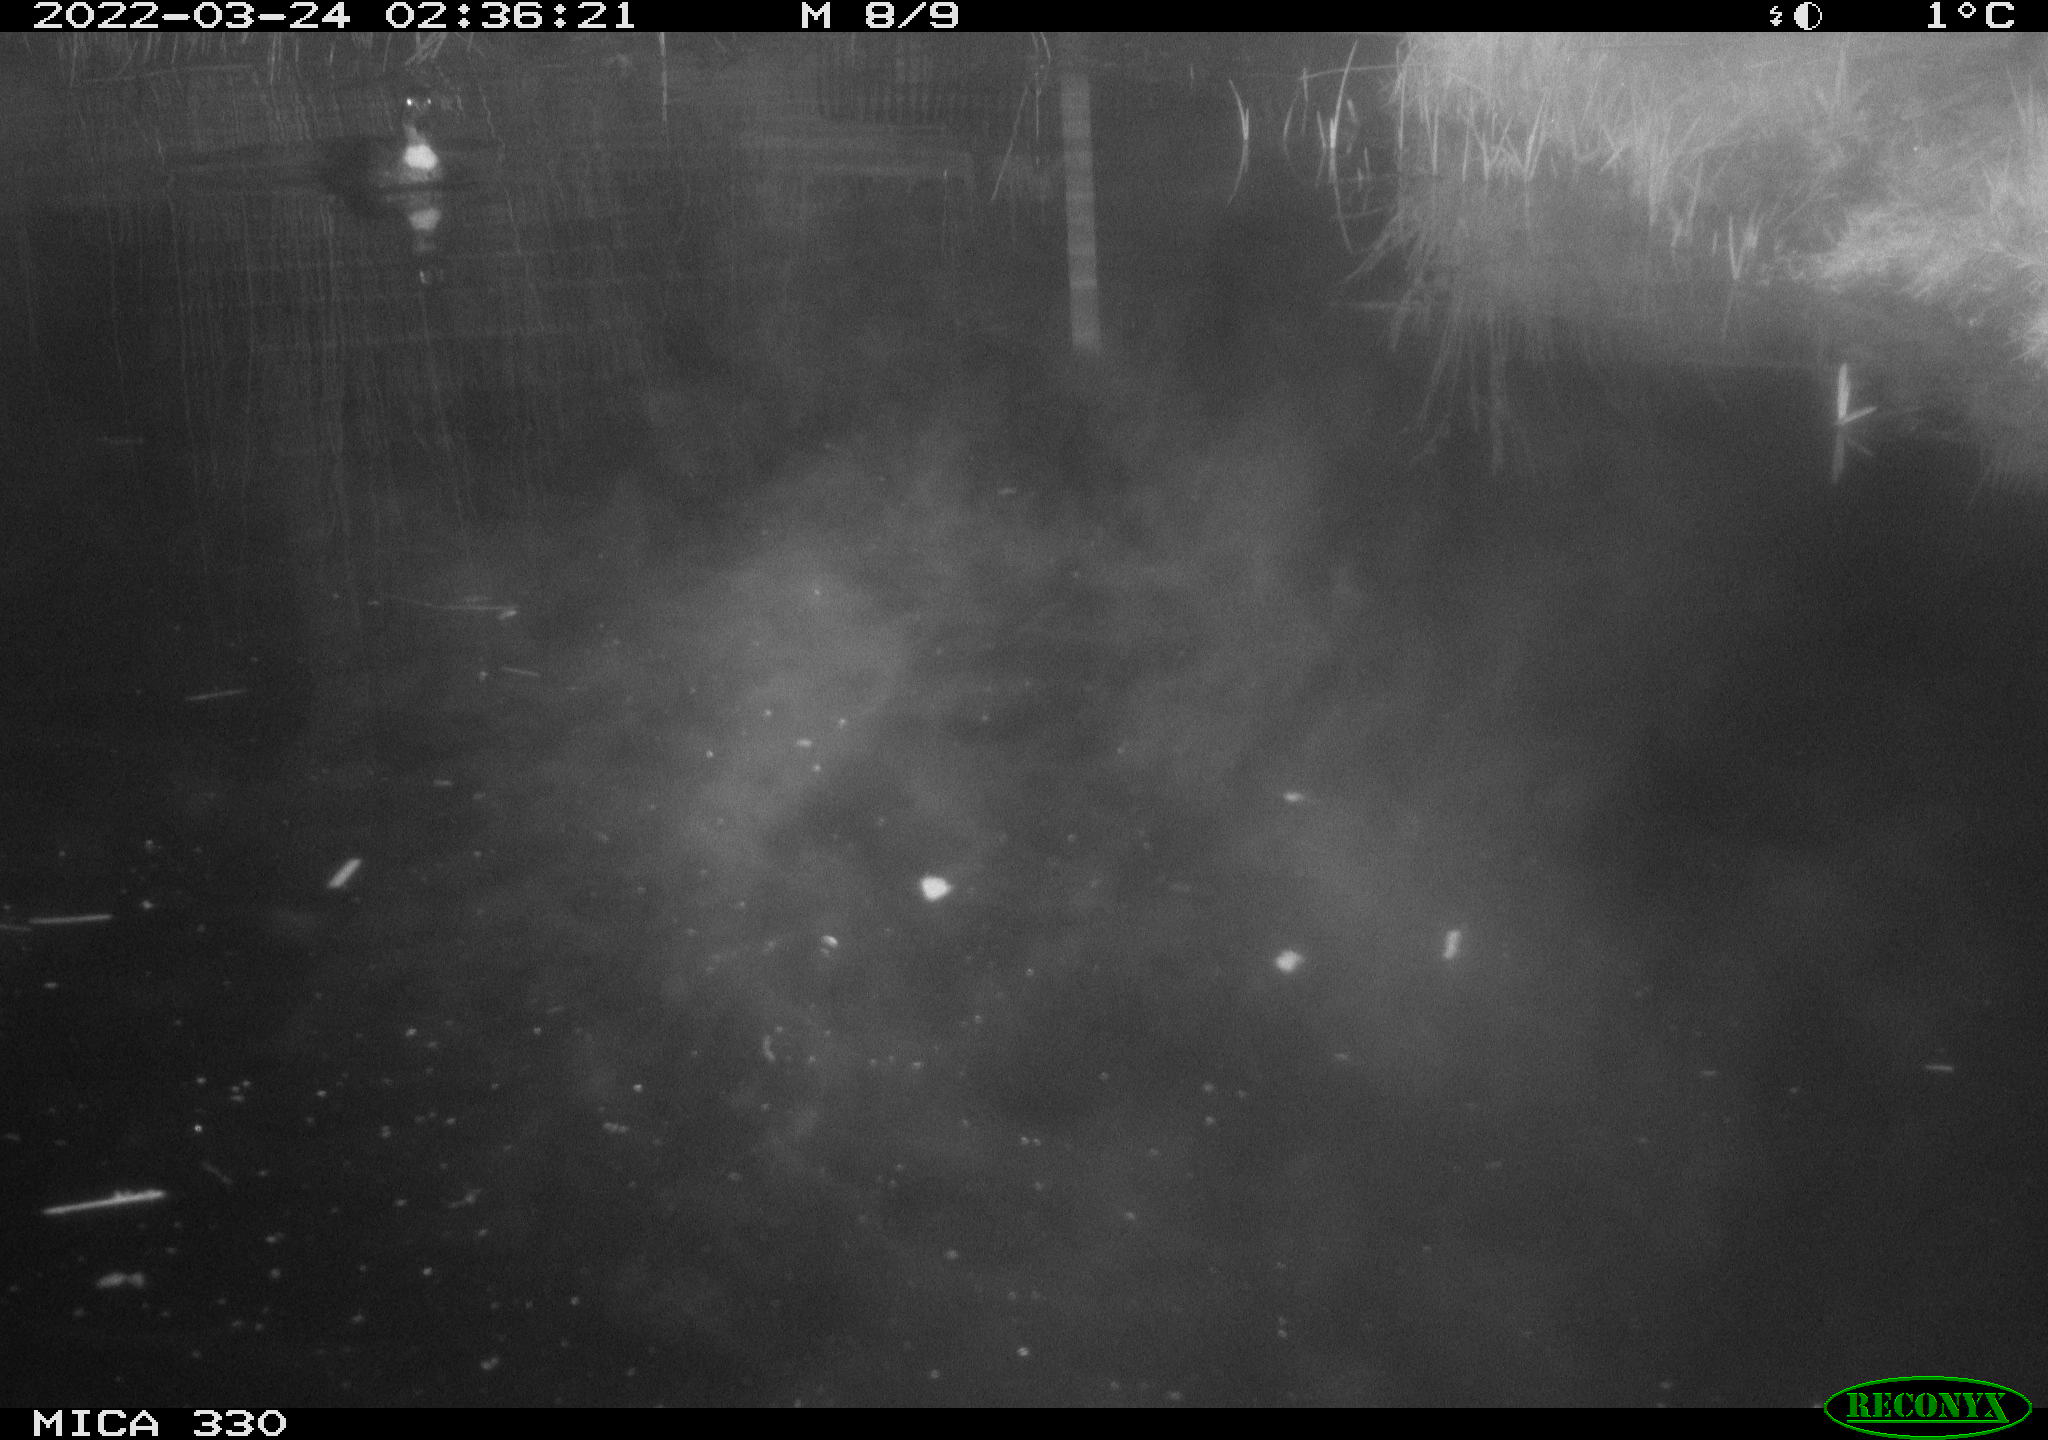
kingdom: Animalia
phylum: Chordata
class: Aves
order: Anseriformes
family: Anatidae
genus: Anas
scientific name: Anas platyrhynchos
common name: Mallard
